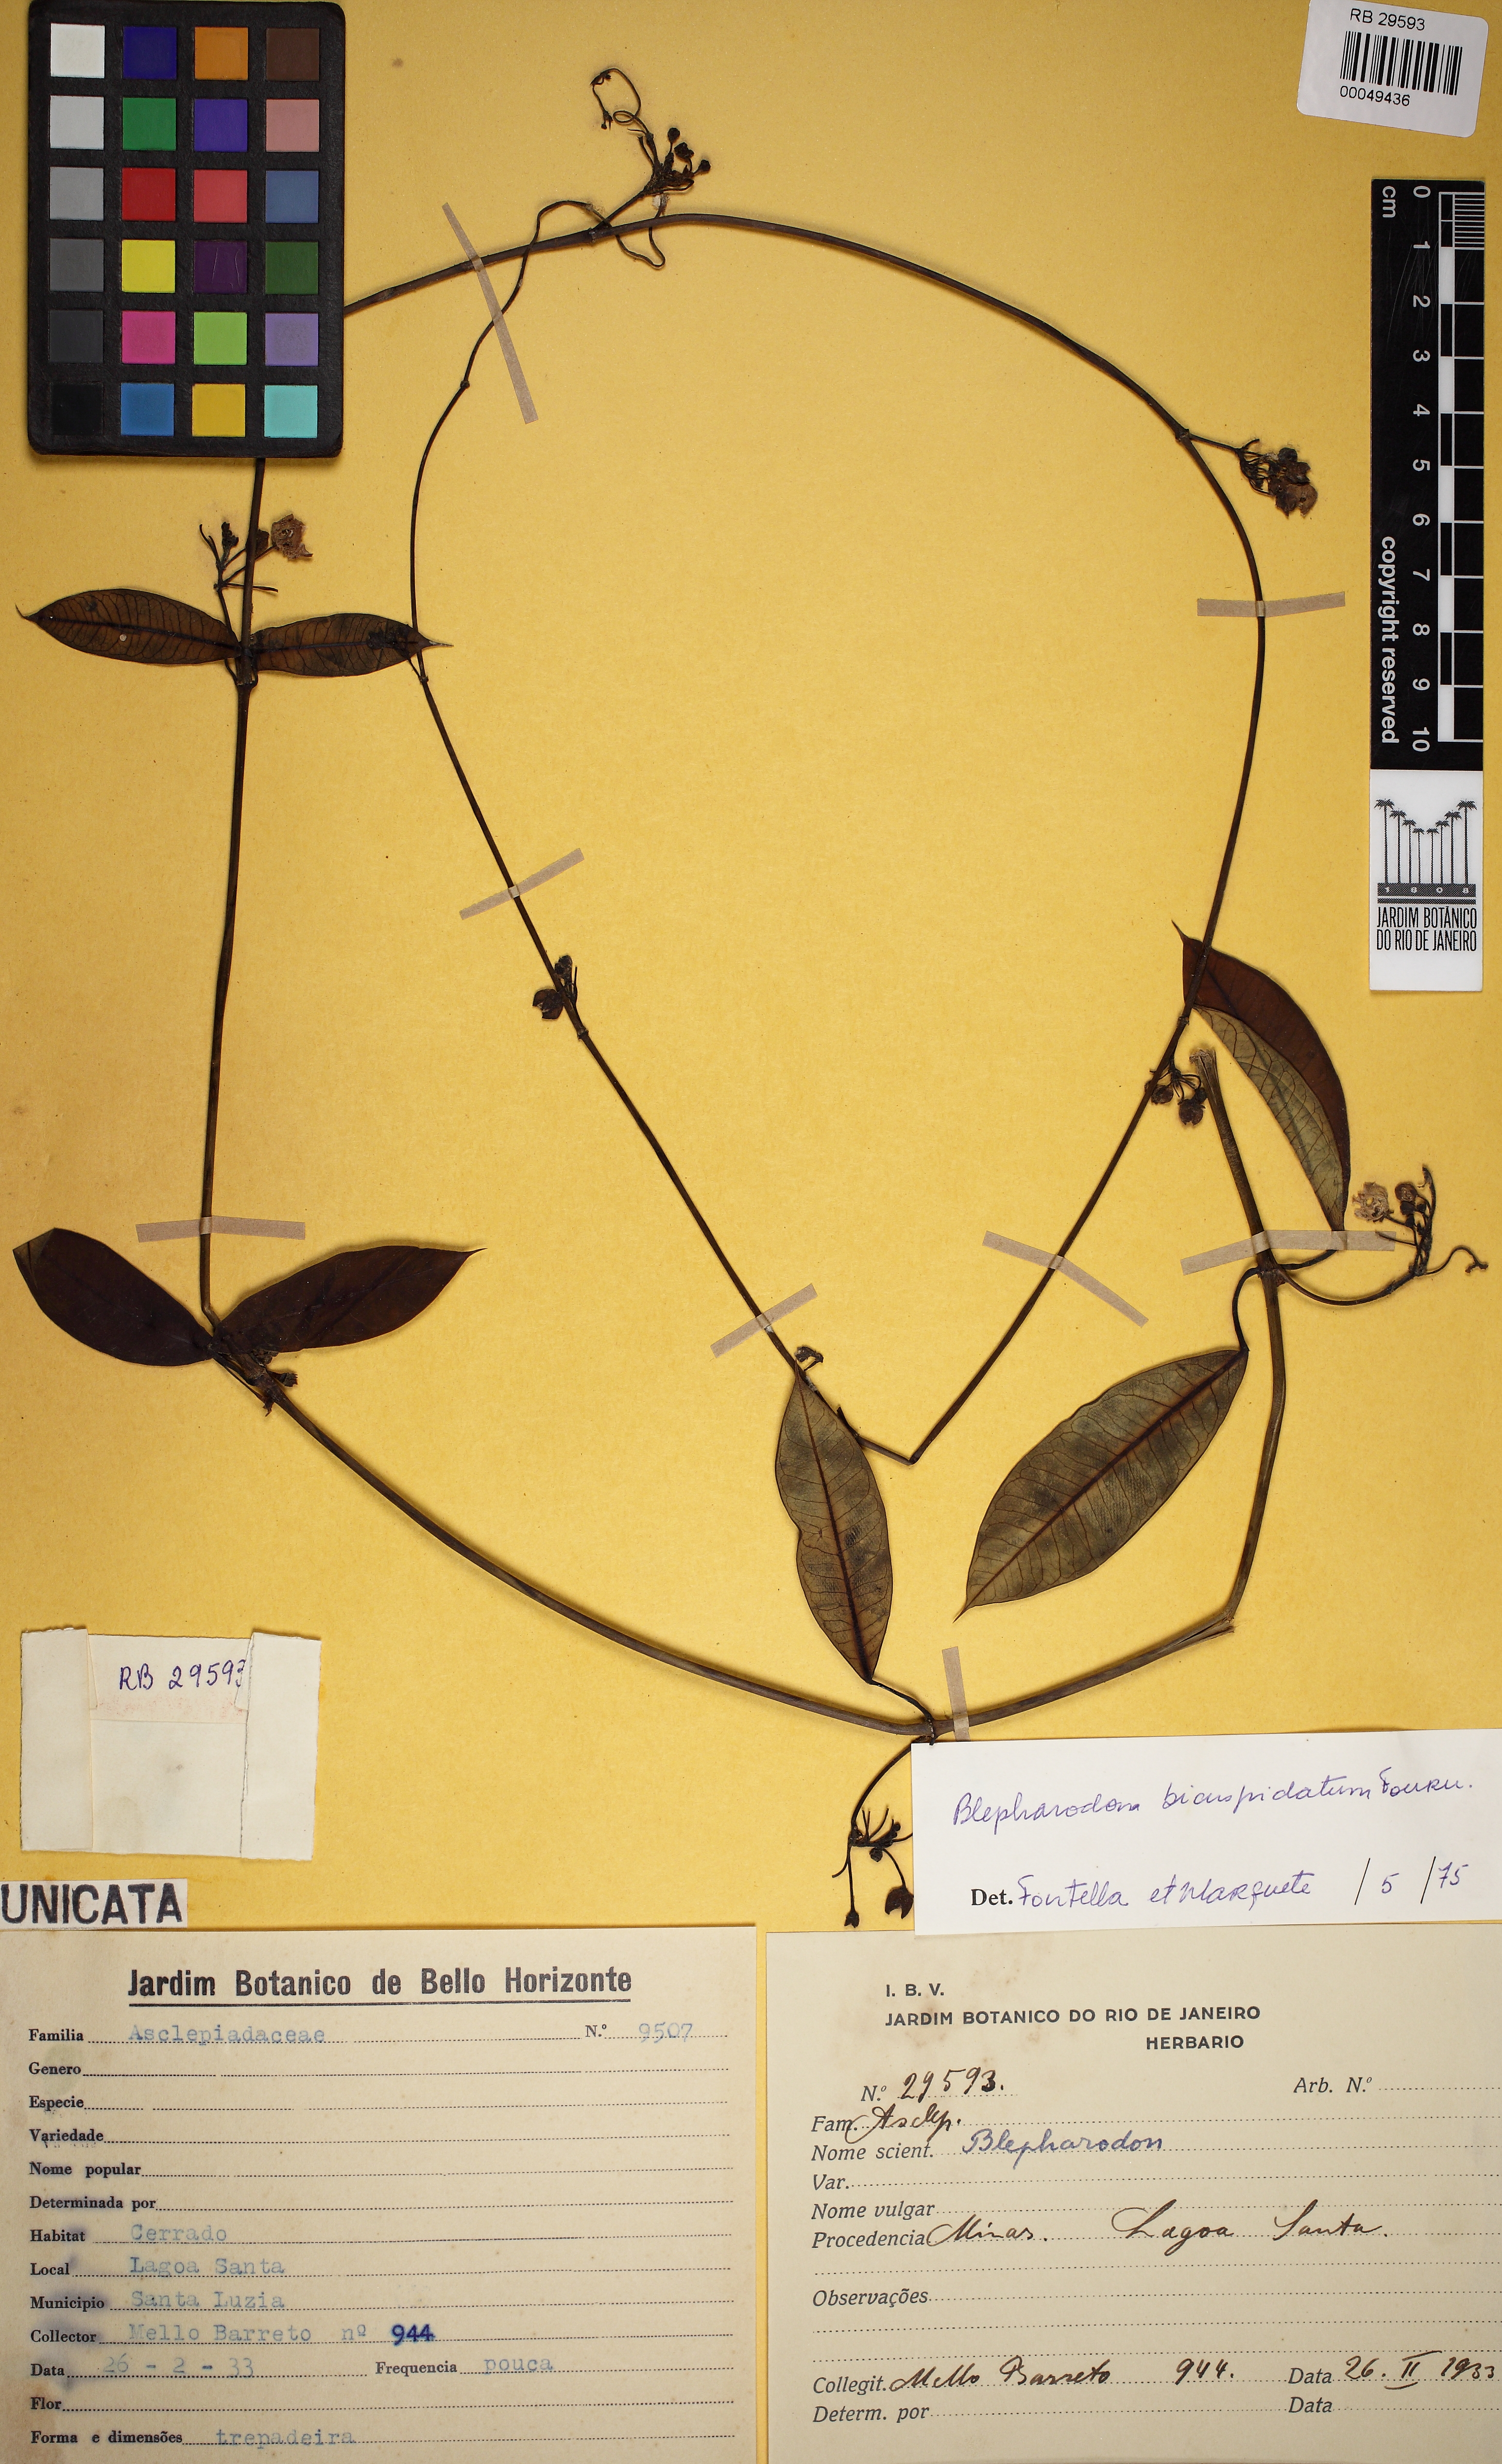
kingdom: Plantae
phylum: Tracheophyta
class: Magnoliopsida
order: Gentianales
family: Apocynaceae
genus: Blepharodon
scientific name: Blepharodon bicuspidatum
